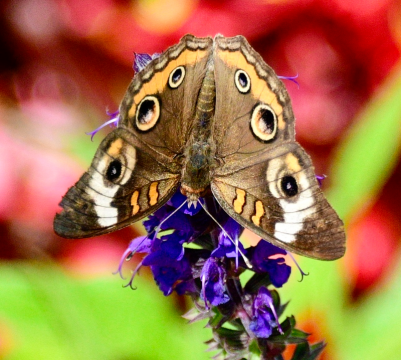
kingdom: Animalia
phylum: Arthropoda
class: Insecta
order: Lepidoptera
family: Nymphalidae
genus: Junonia
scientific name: Junonia coenia
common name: Common Buckeye
